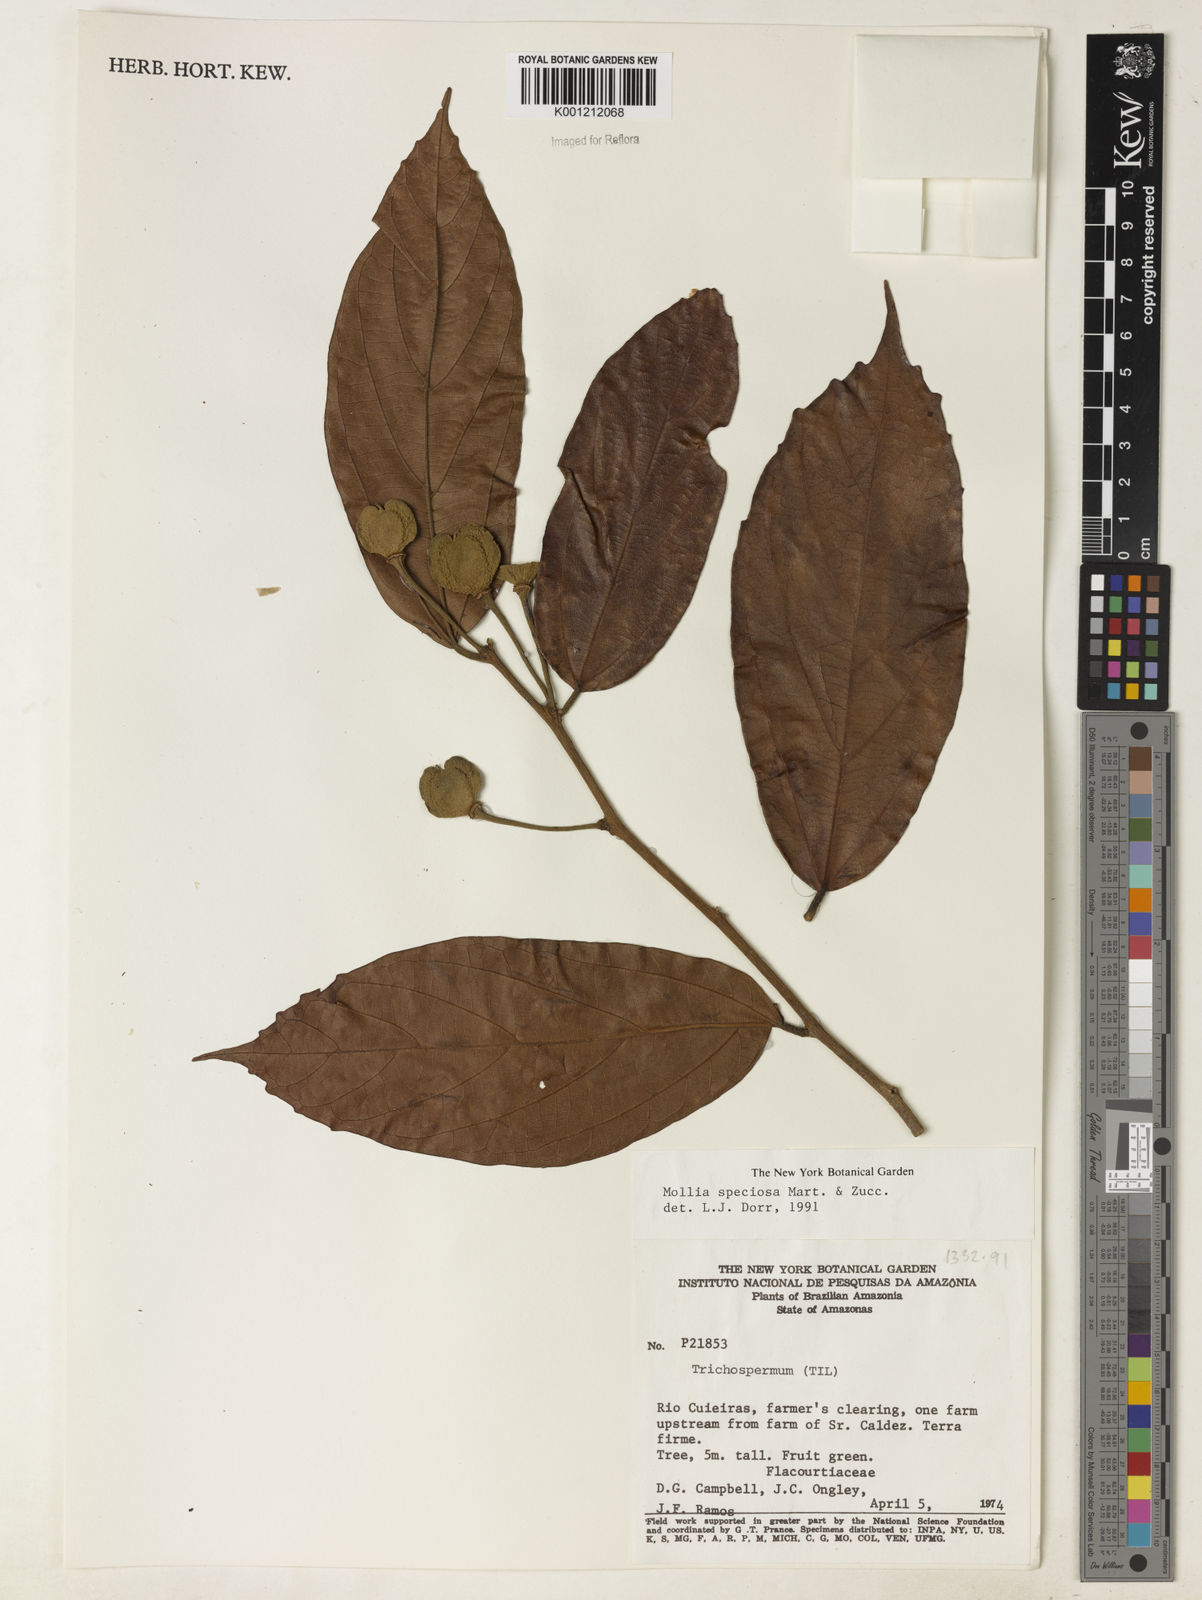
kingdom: Plantae
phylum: Tracheophyta
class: Magnoliopsida
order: Malvales
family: Malvaceae
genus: Mollia
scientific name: Mollia speciosa
